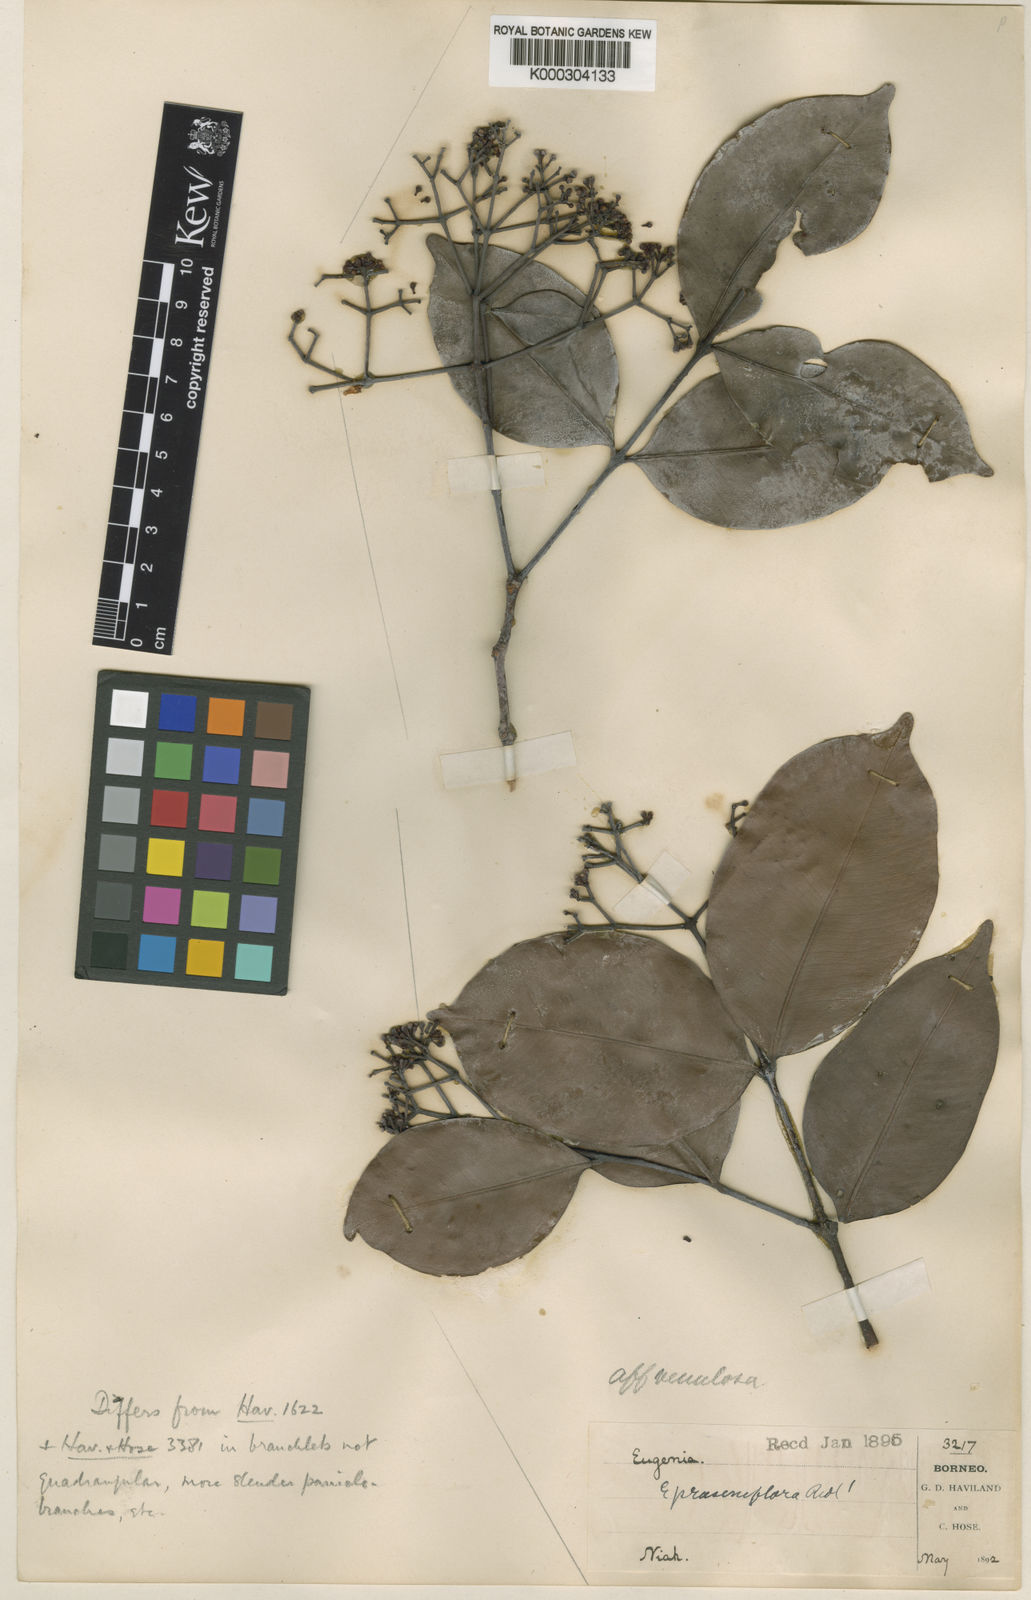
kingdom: Plantae
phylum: Tracheophyta
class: Magnoliopsida
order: Myrtales
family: Myrtaceae
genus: Syzygium
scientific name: Syzygium prasiniflorum
